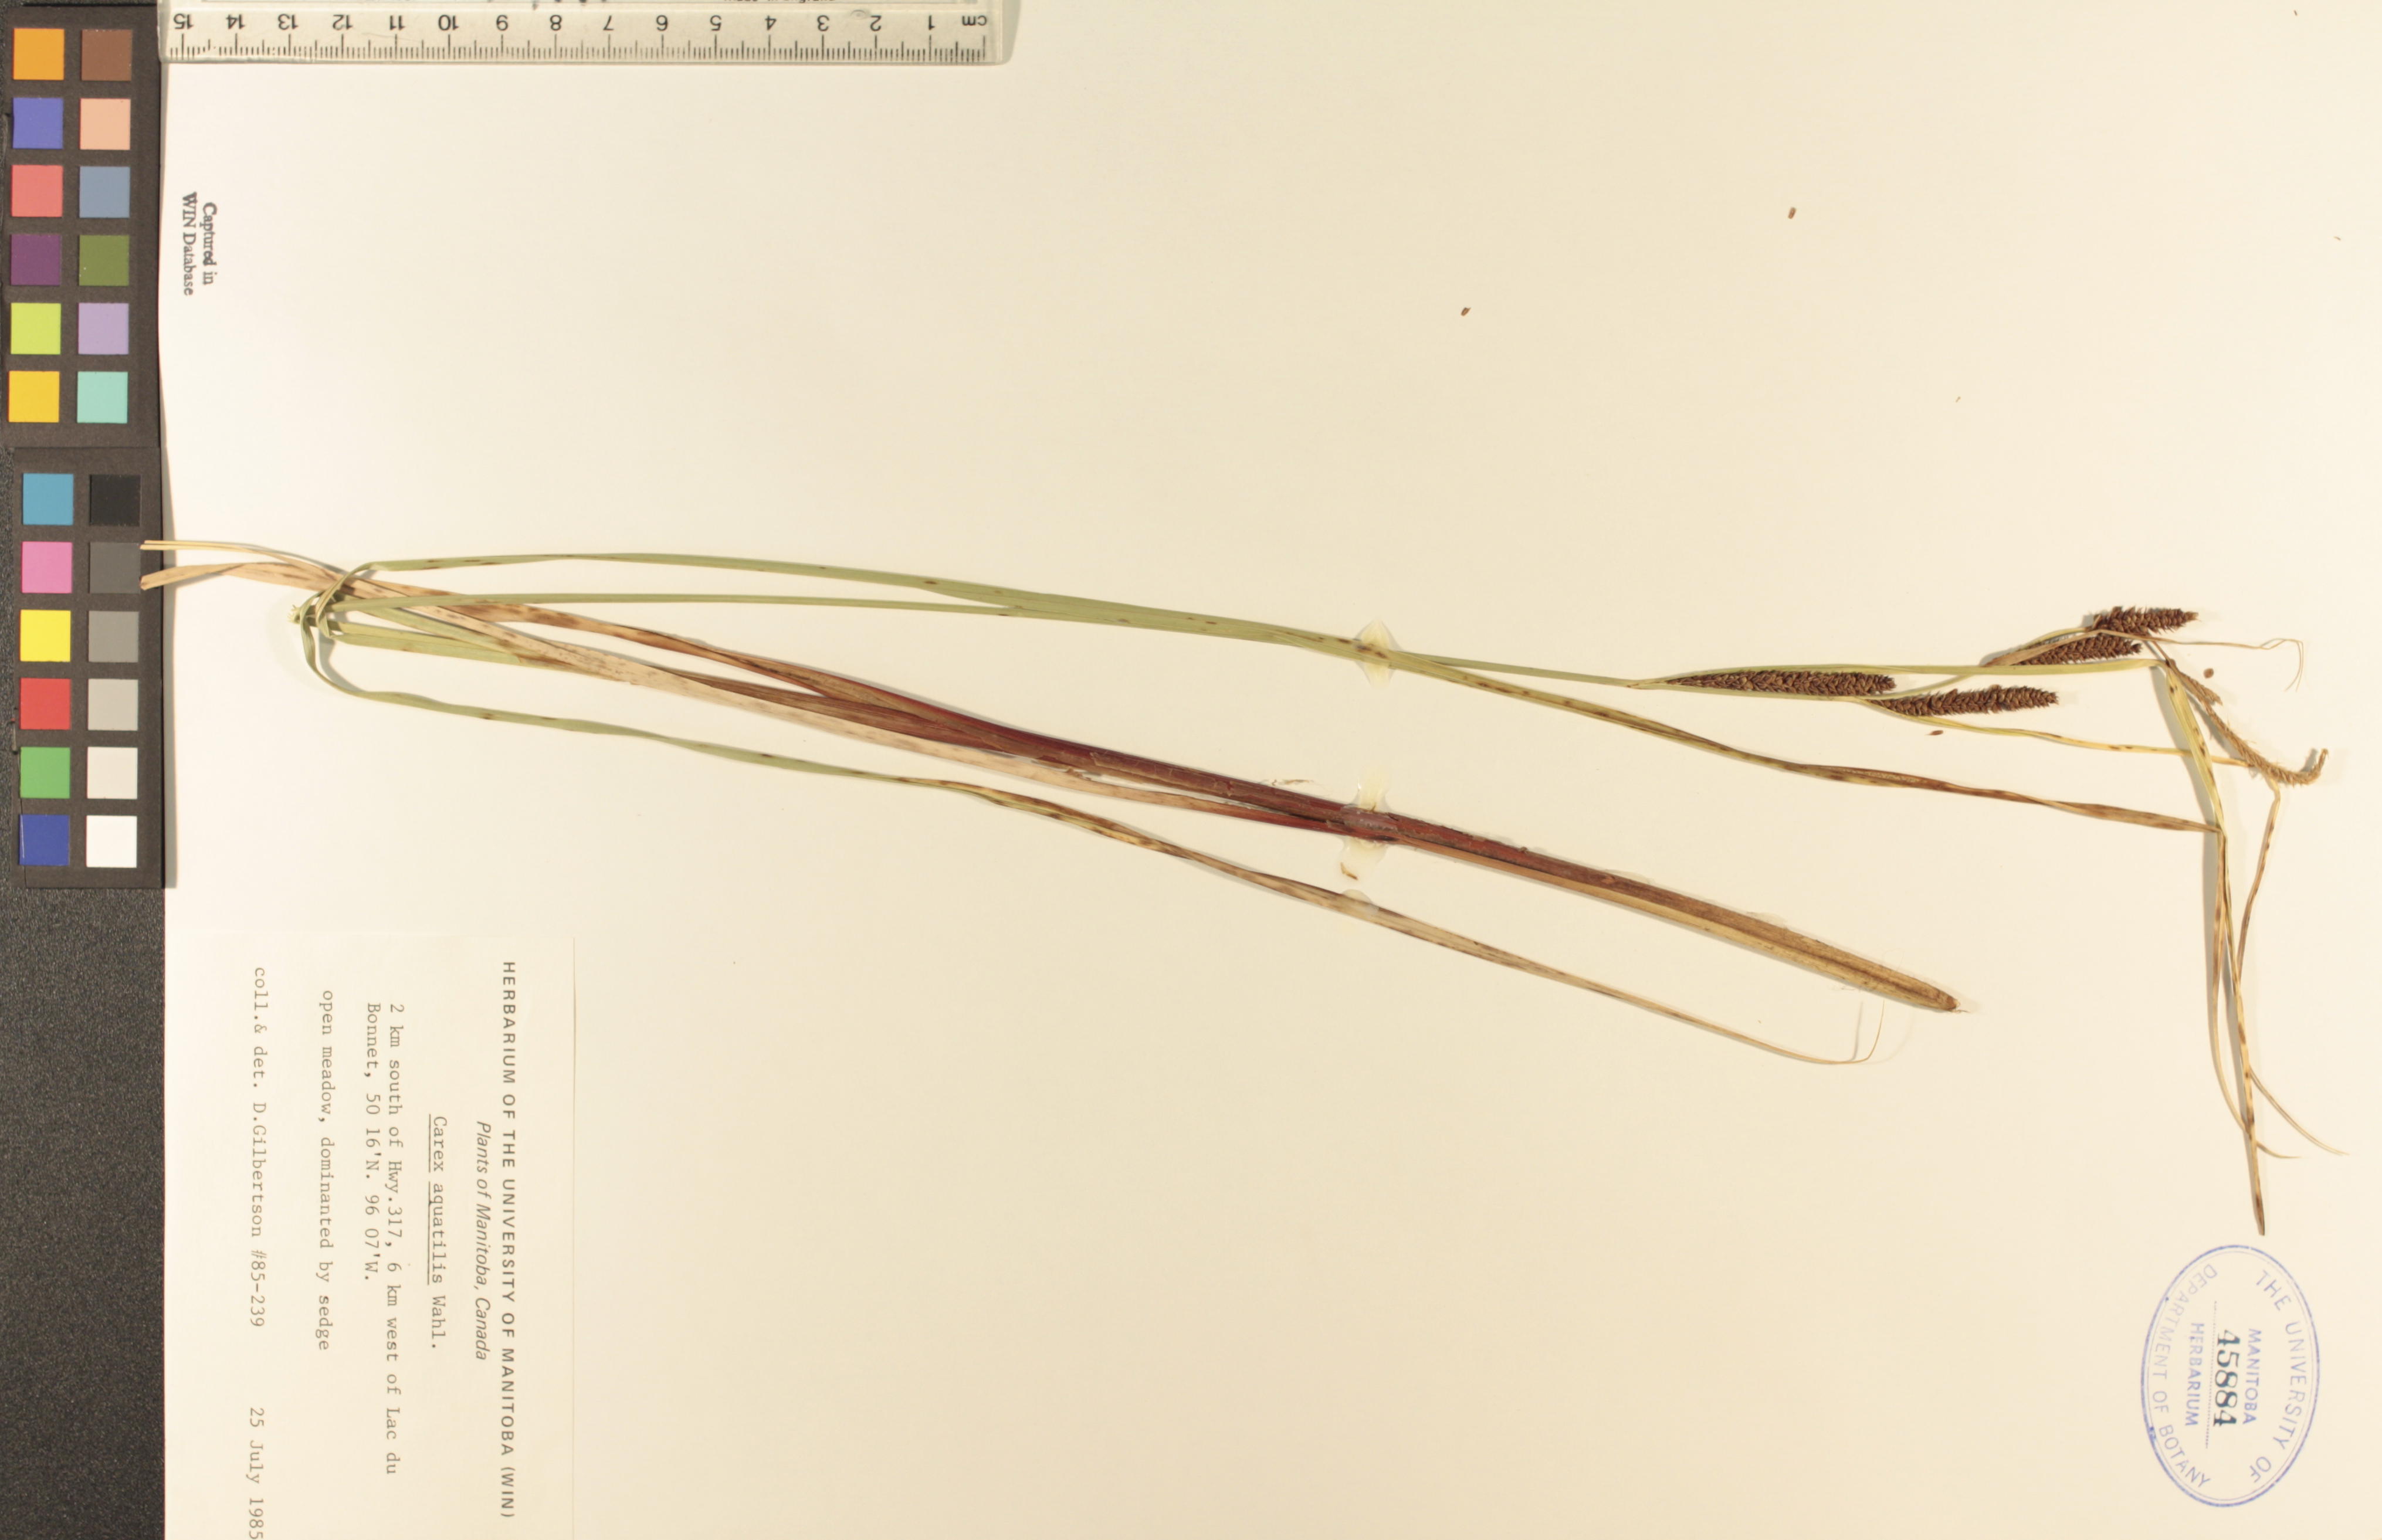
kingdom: Plantae
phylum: Tracheophyta
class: Liliopsida
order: Poales
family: Cyperaceae
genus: Carex
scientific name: Carex aquatilis
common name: Water sedge
